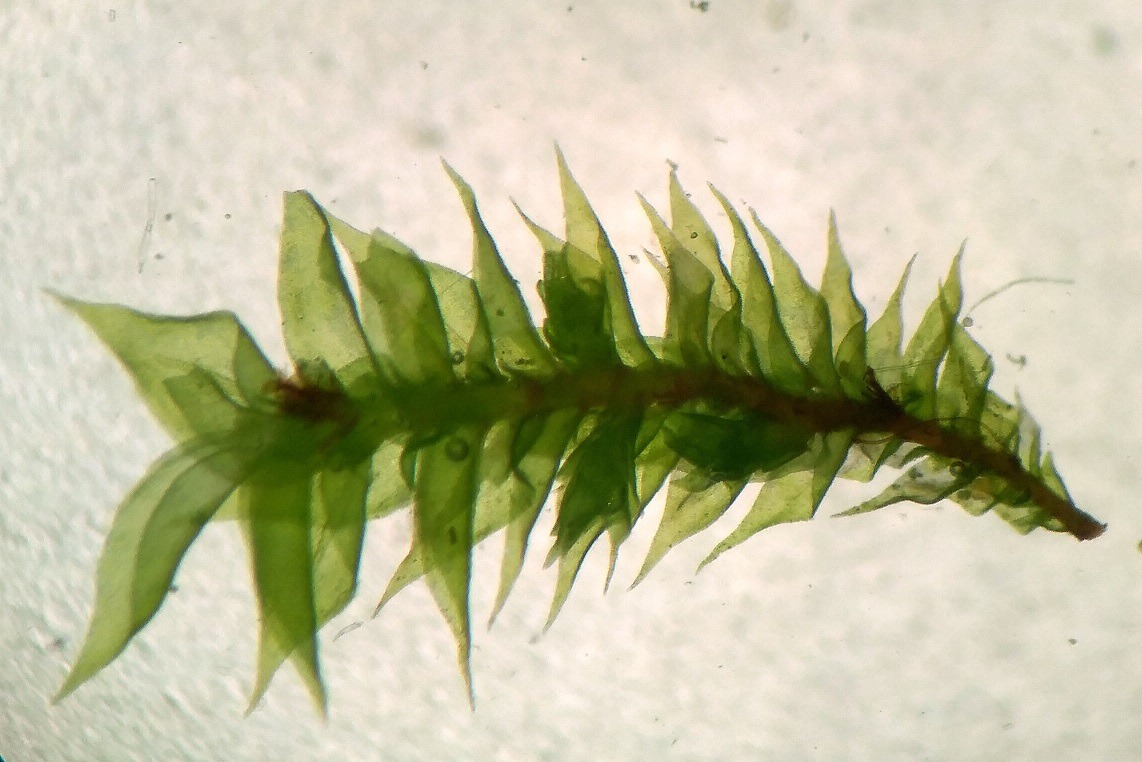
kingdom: Plantae
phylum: Bryophyta
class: Bryopsida
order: Hypnales
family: Cryphaeaceae
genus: Cryphaea
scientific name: Cryphaea heteromalla
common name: Bark-dækmos
